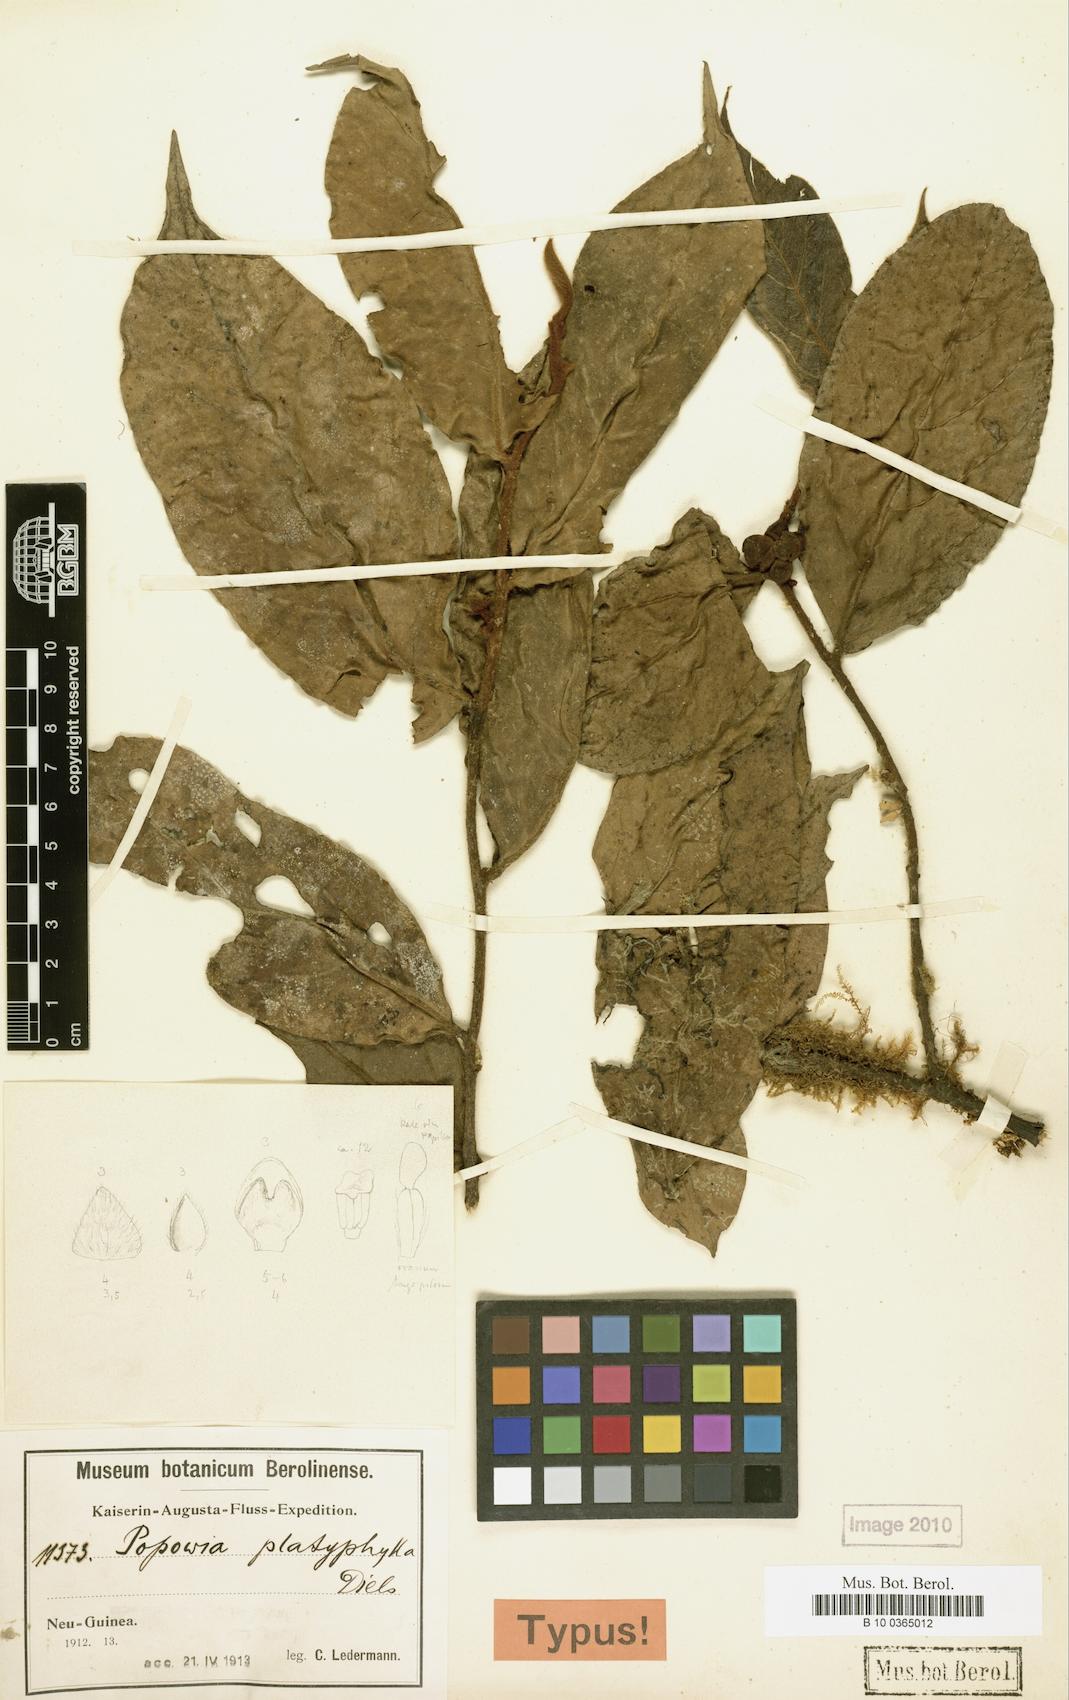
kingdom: Plantae
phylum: Tracheophyta
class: Magnoliopsida
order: Magnoliales
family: Annonaceae
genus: Popowia
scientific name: Popowia platyphylla
